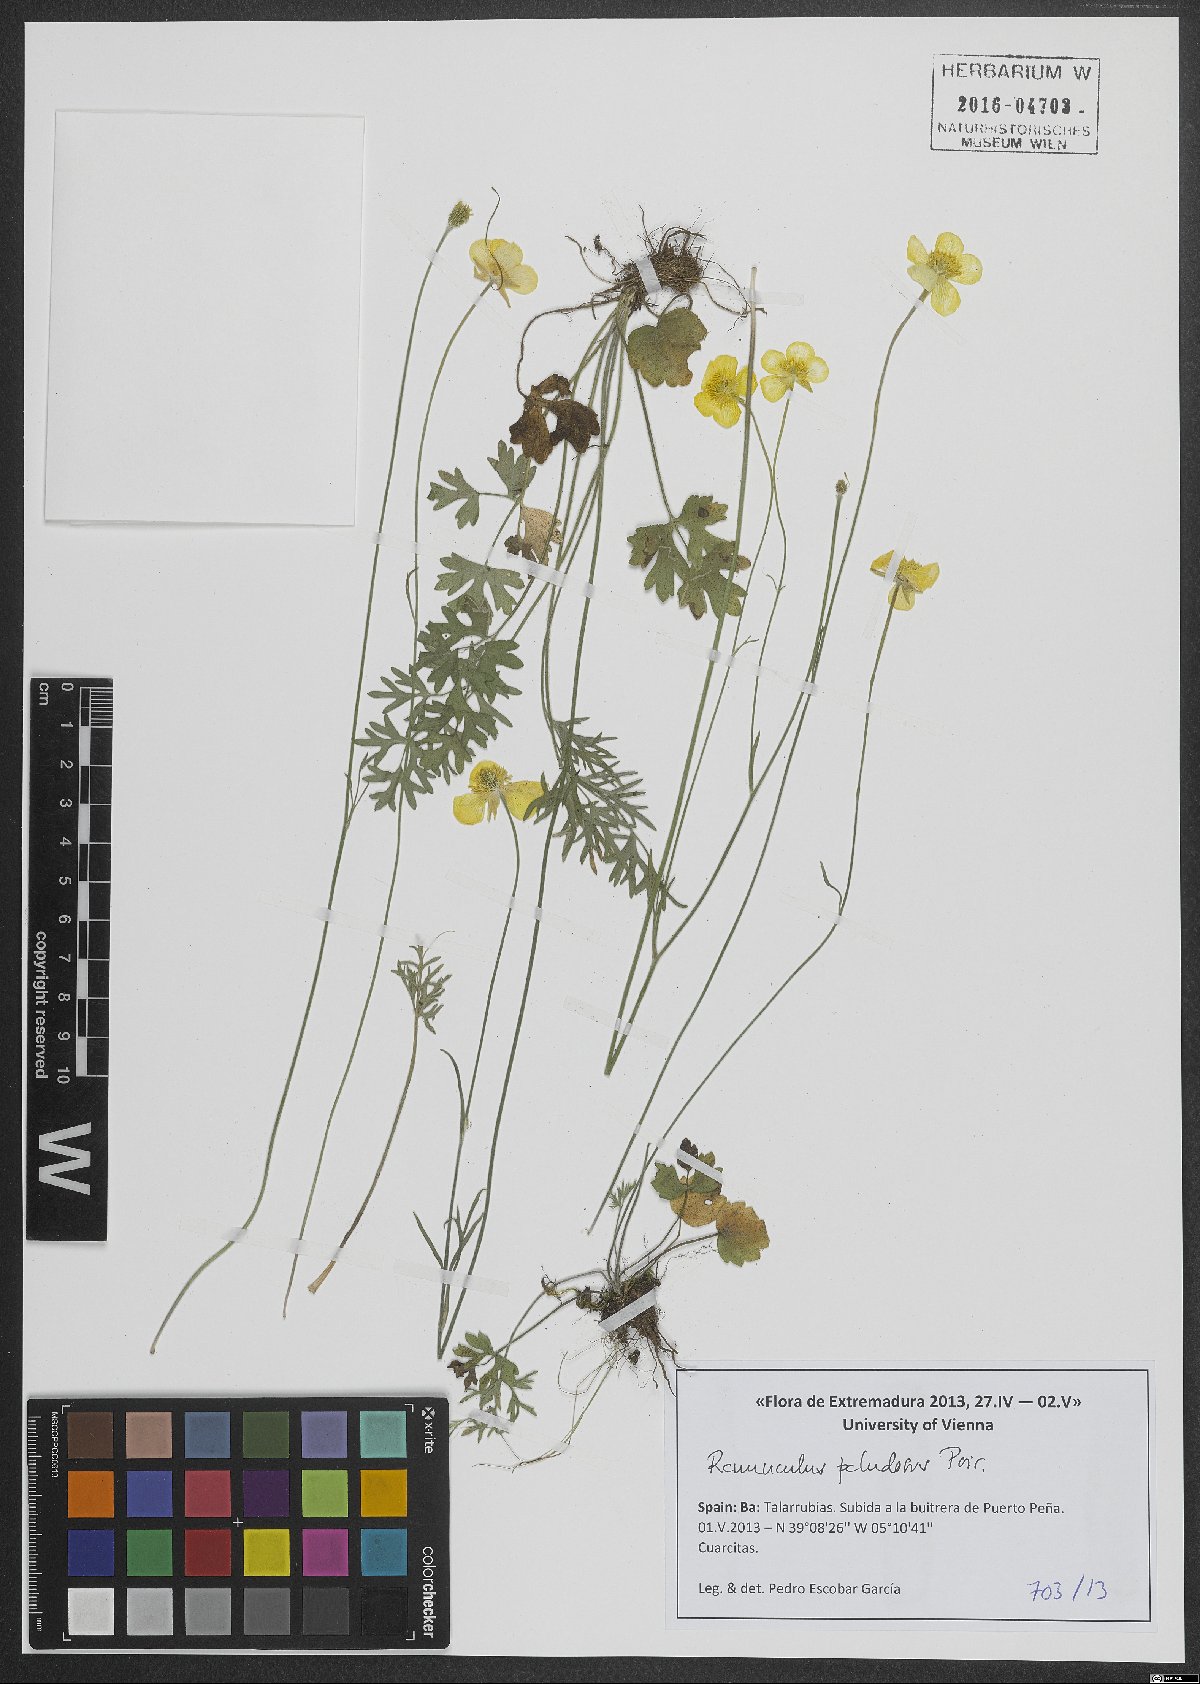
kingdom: Plantae
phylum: Tracheophyta
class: Magnoliopsida
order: Ranunculales
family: Ranunculaceae
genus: Ranunculus
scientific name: Ranunculus paludosus
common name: Jersey buttercup
